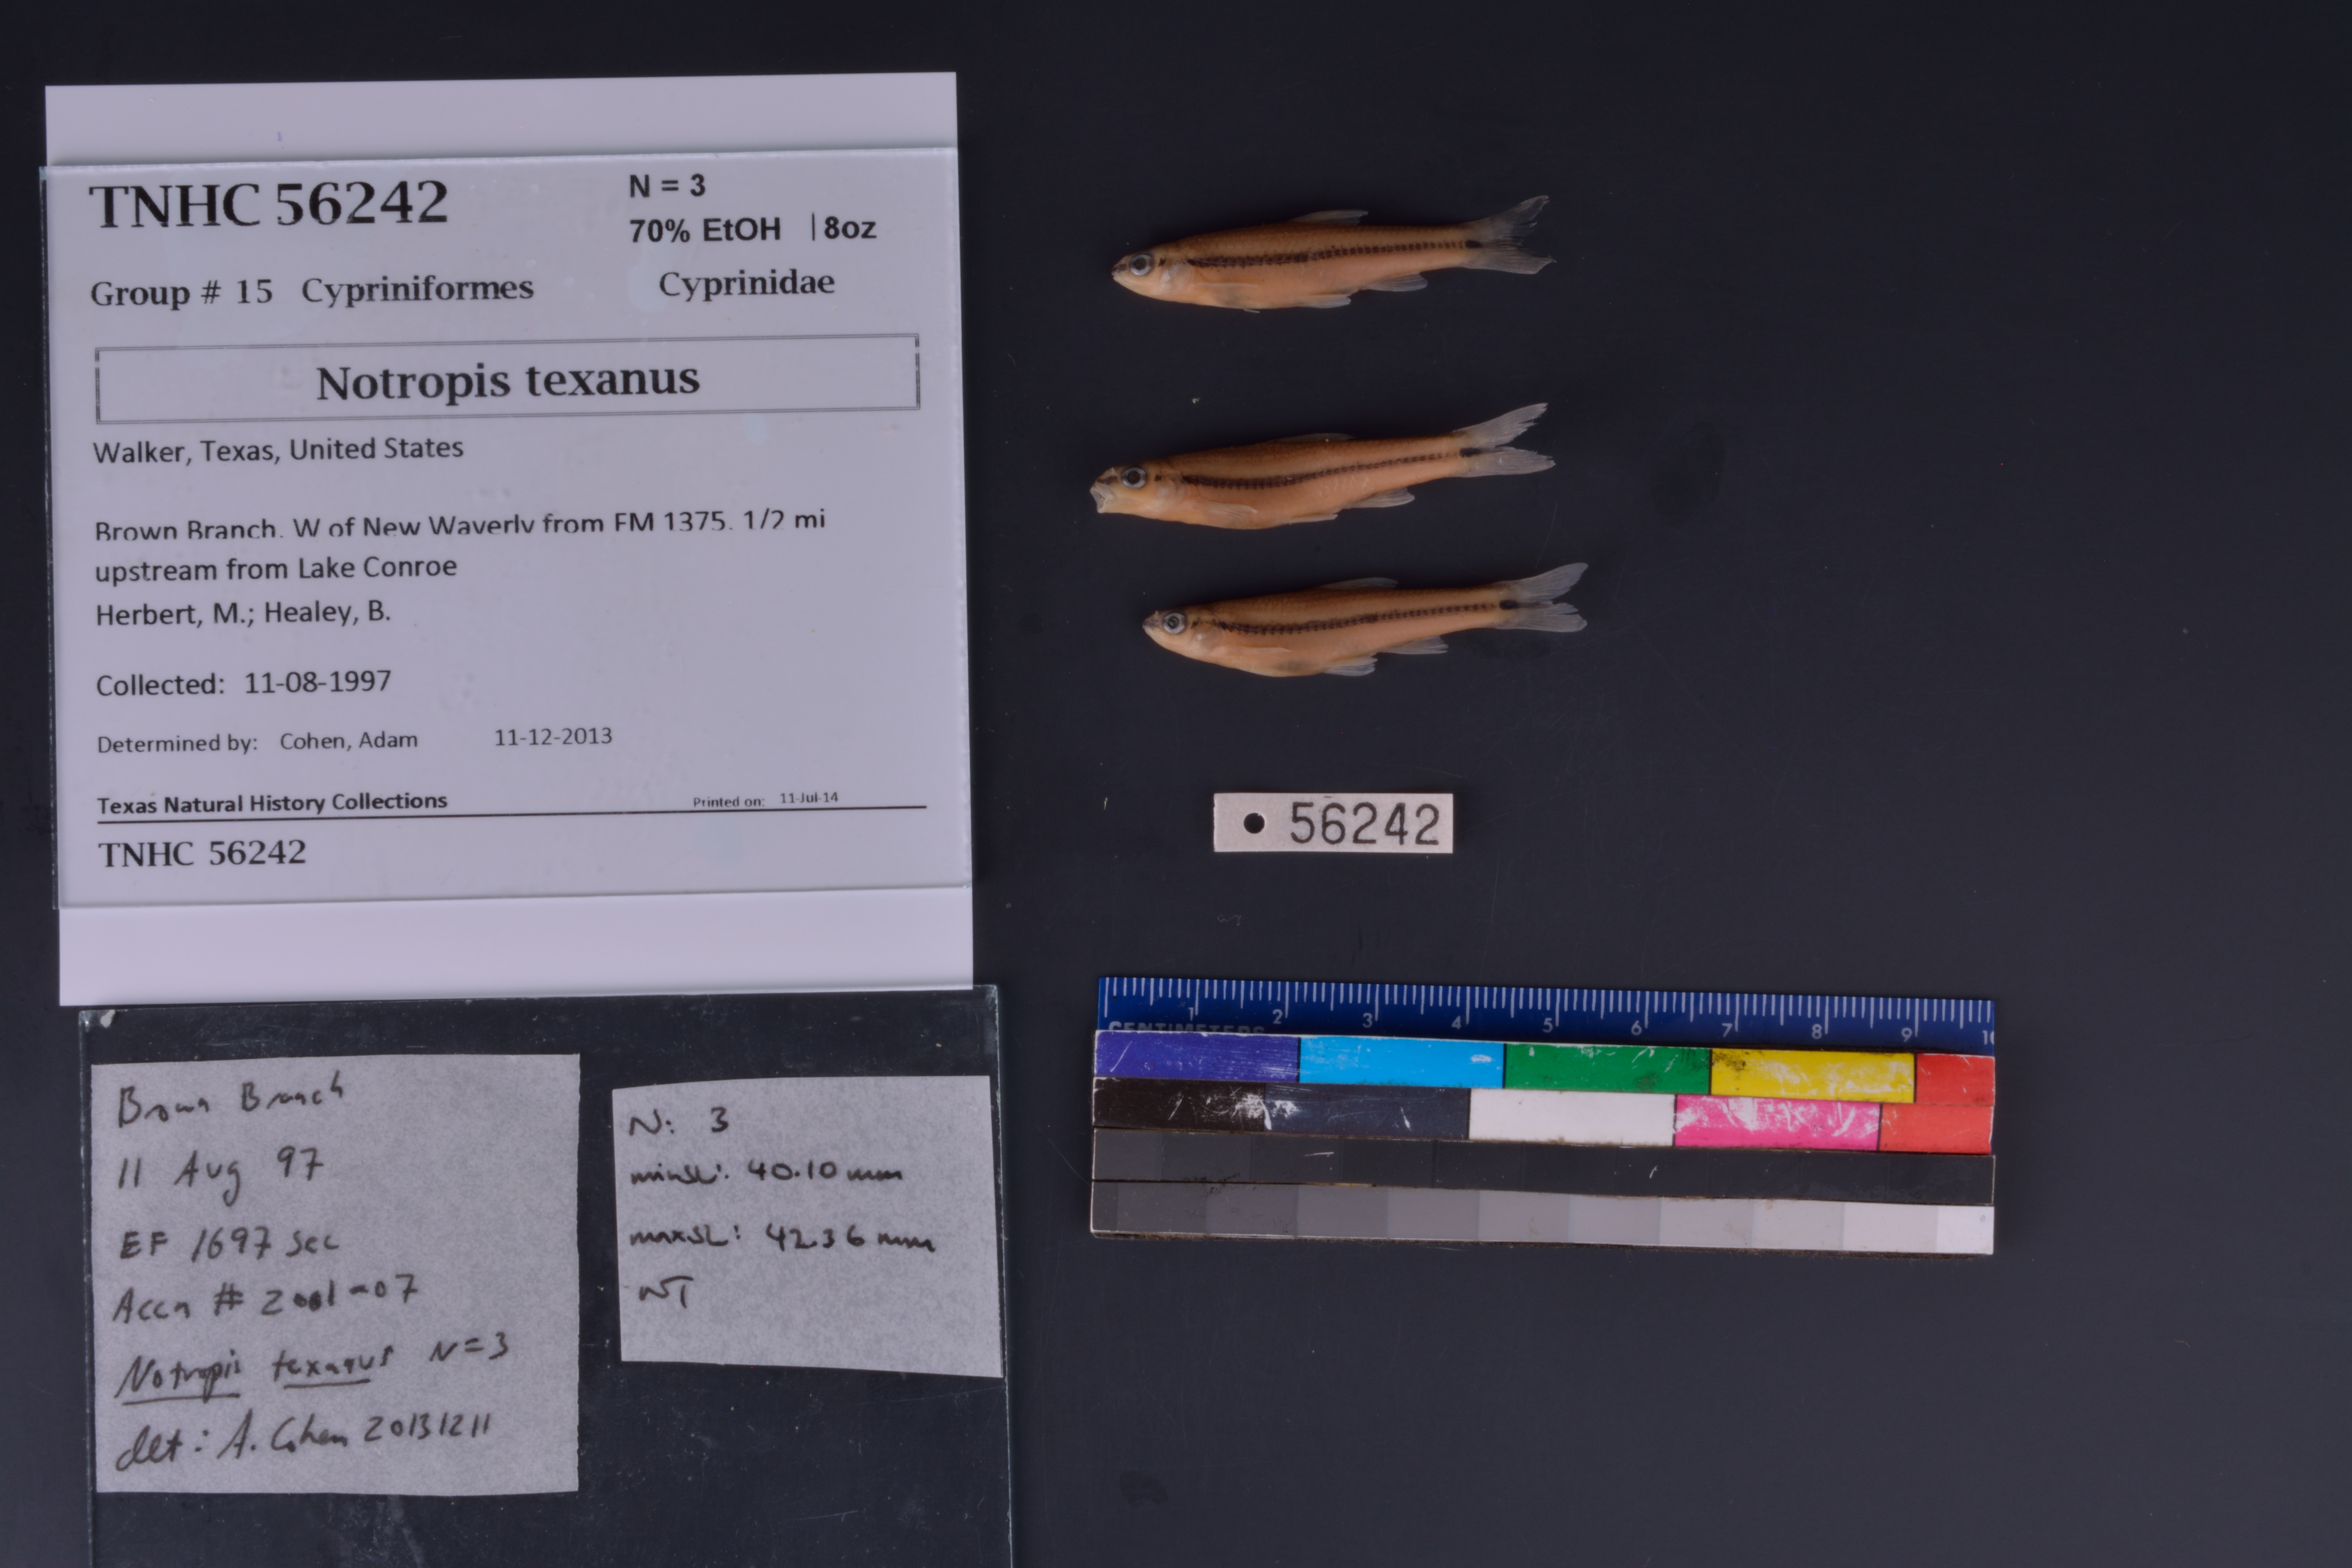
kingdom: Animalia
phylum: Chordata
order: Cypriniformes
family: Cyprinidae
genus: Notropis
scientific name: Notropis texanus
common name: Weed shiner
